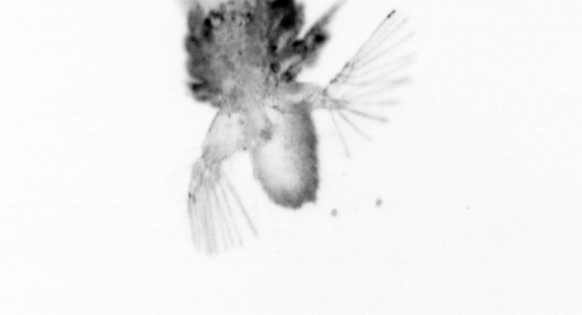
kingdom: Animalia
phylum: Arthropoda
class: Copepoda
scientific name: Copepoda
